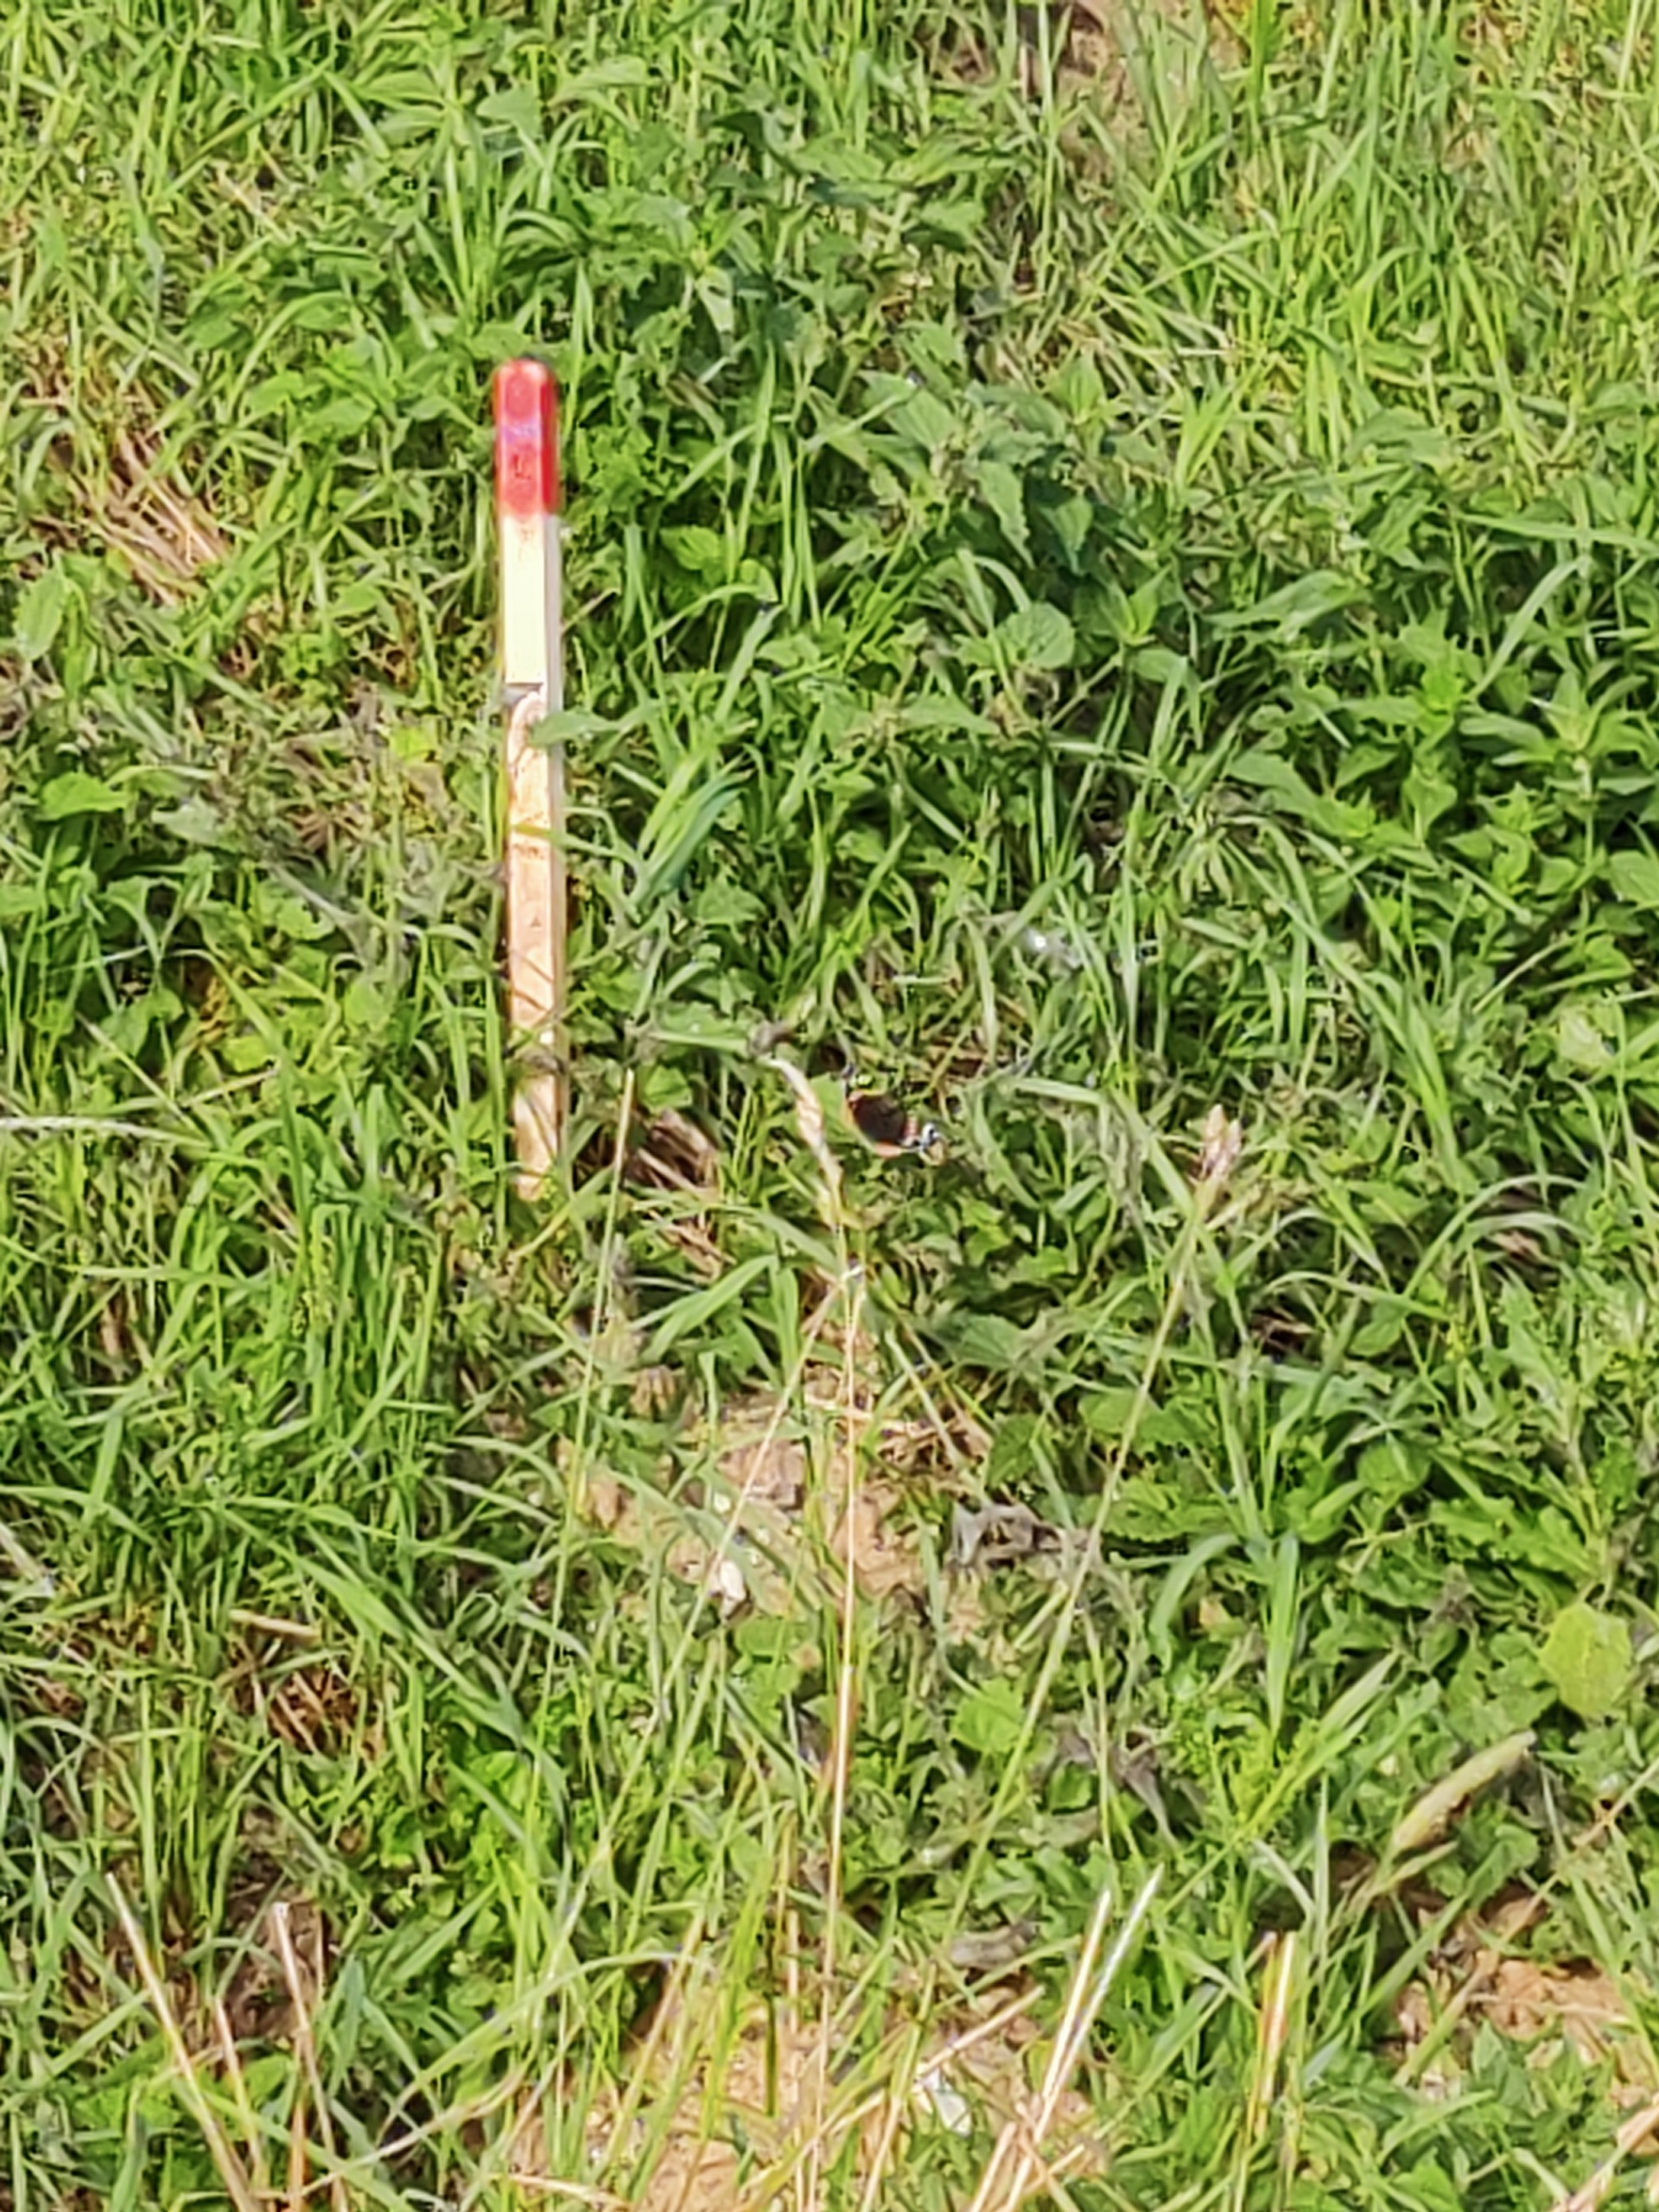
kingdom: Animalia
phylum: Arthropoda
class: Insecta
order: Lepidoptera
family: Nymphalidae
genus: Vanessa
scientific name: Vanessa atalanta
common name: Admiral
